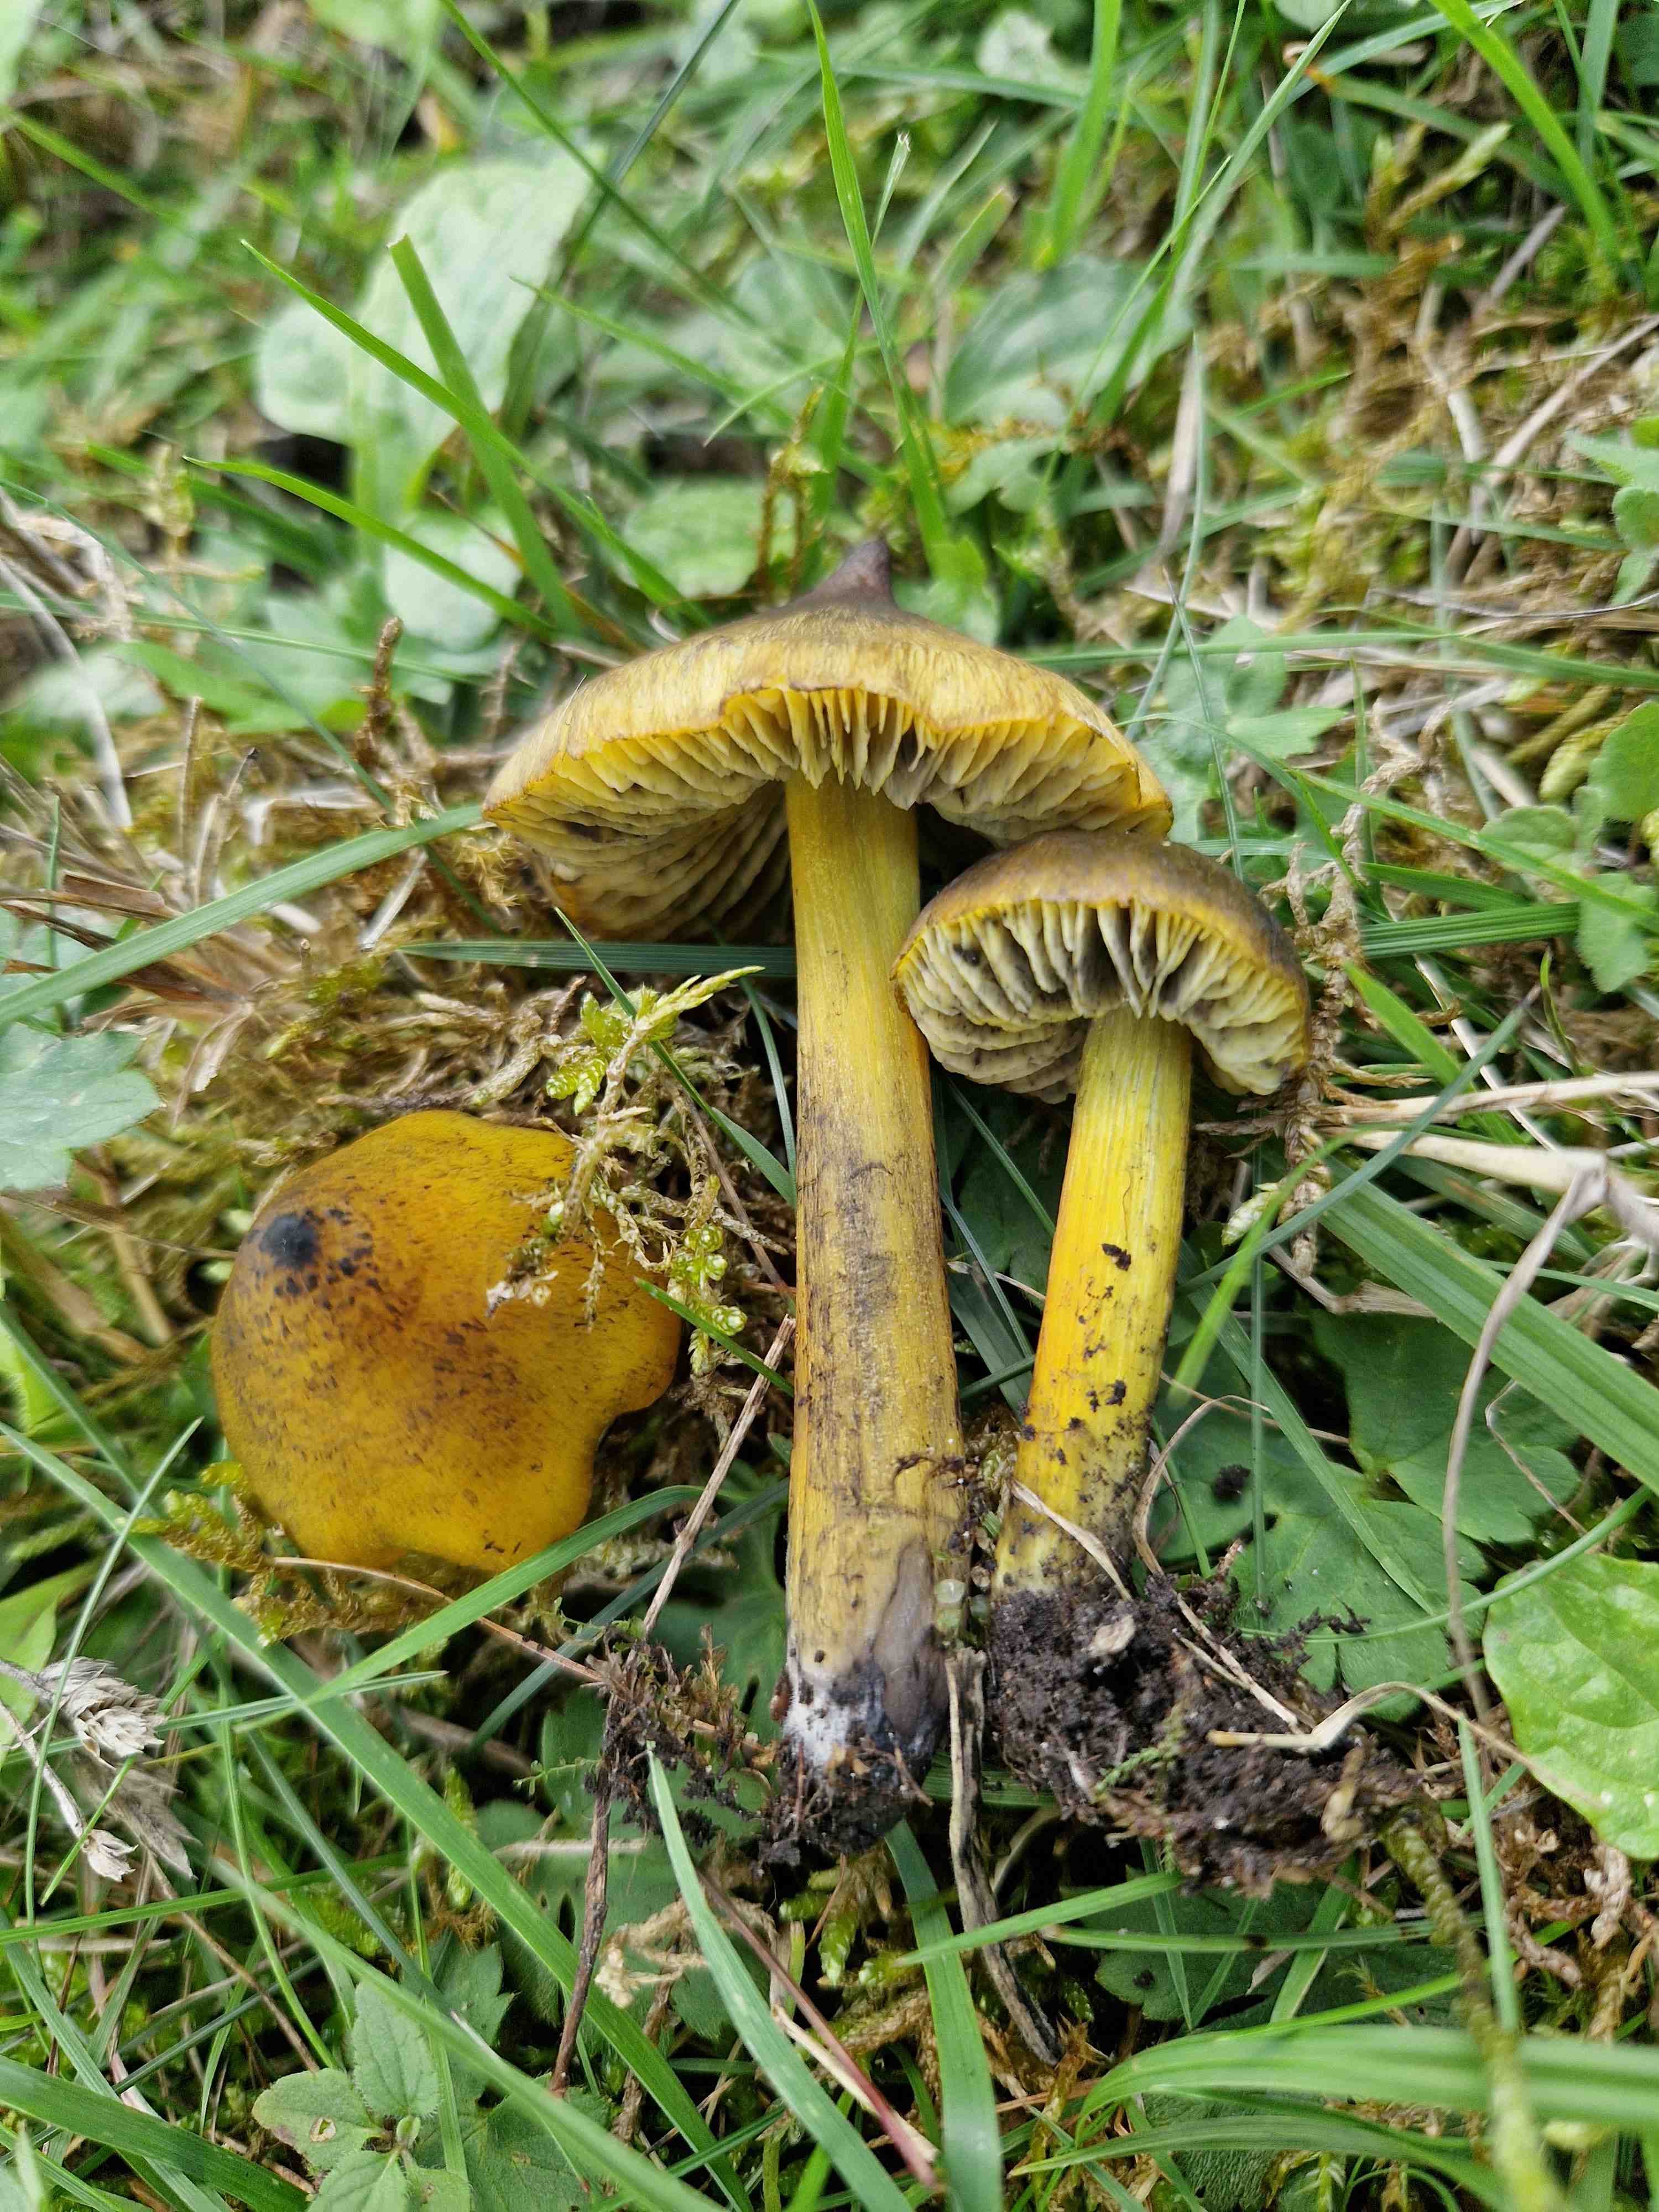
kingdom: Fungi
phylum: Basidiomycota
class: Agaricomycetes
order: Agaricales
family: Hygrophoraceae
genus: Hygrocybe
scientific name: Hygrocybe conica
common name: Blackening wax-cap
